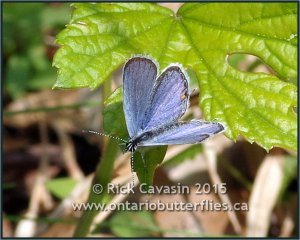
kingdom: Animalia
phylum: Arthropoda
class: Insecta
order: Lepidoptera
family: Lycaenidae
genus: Elkalyce
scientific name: Elkalyce comyntas
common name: Eastern Tailed-Blue
